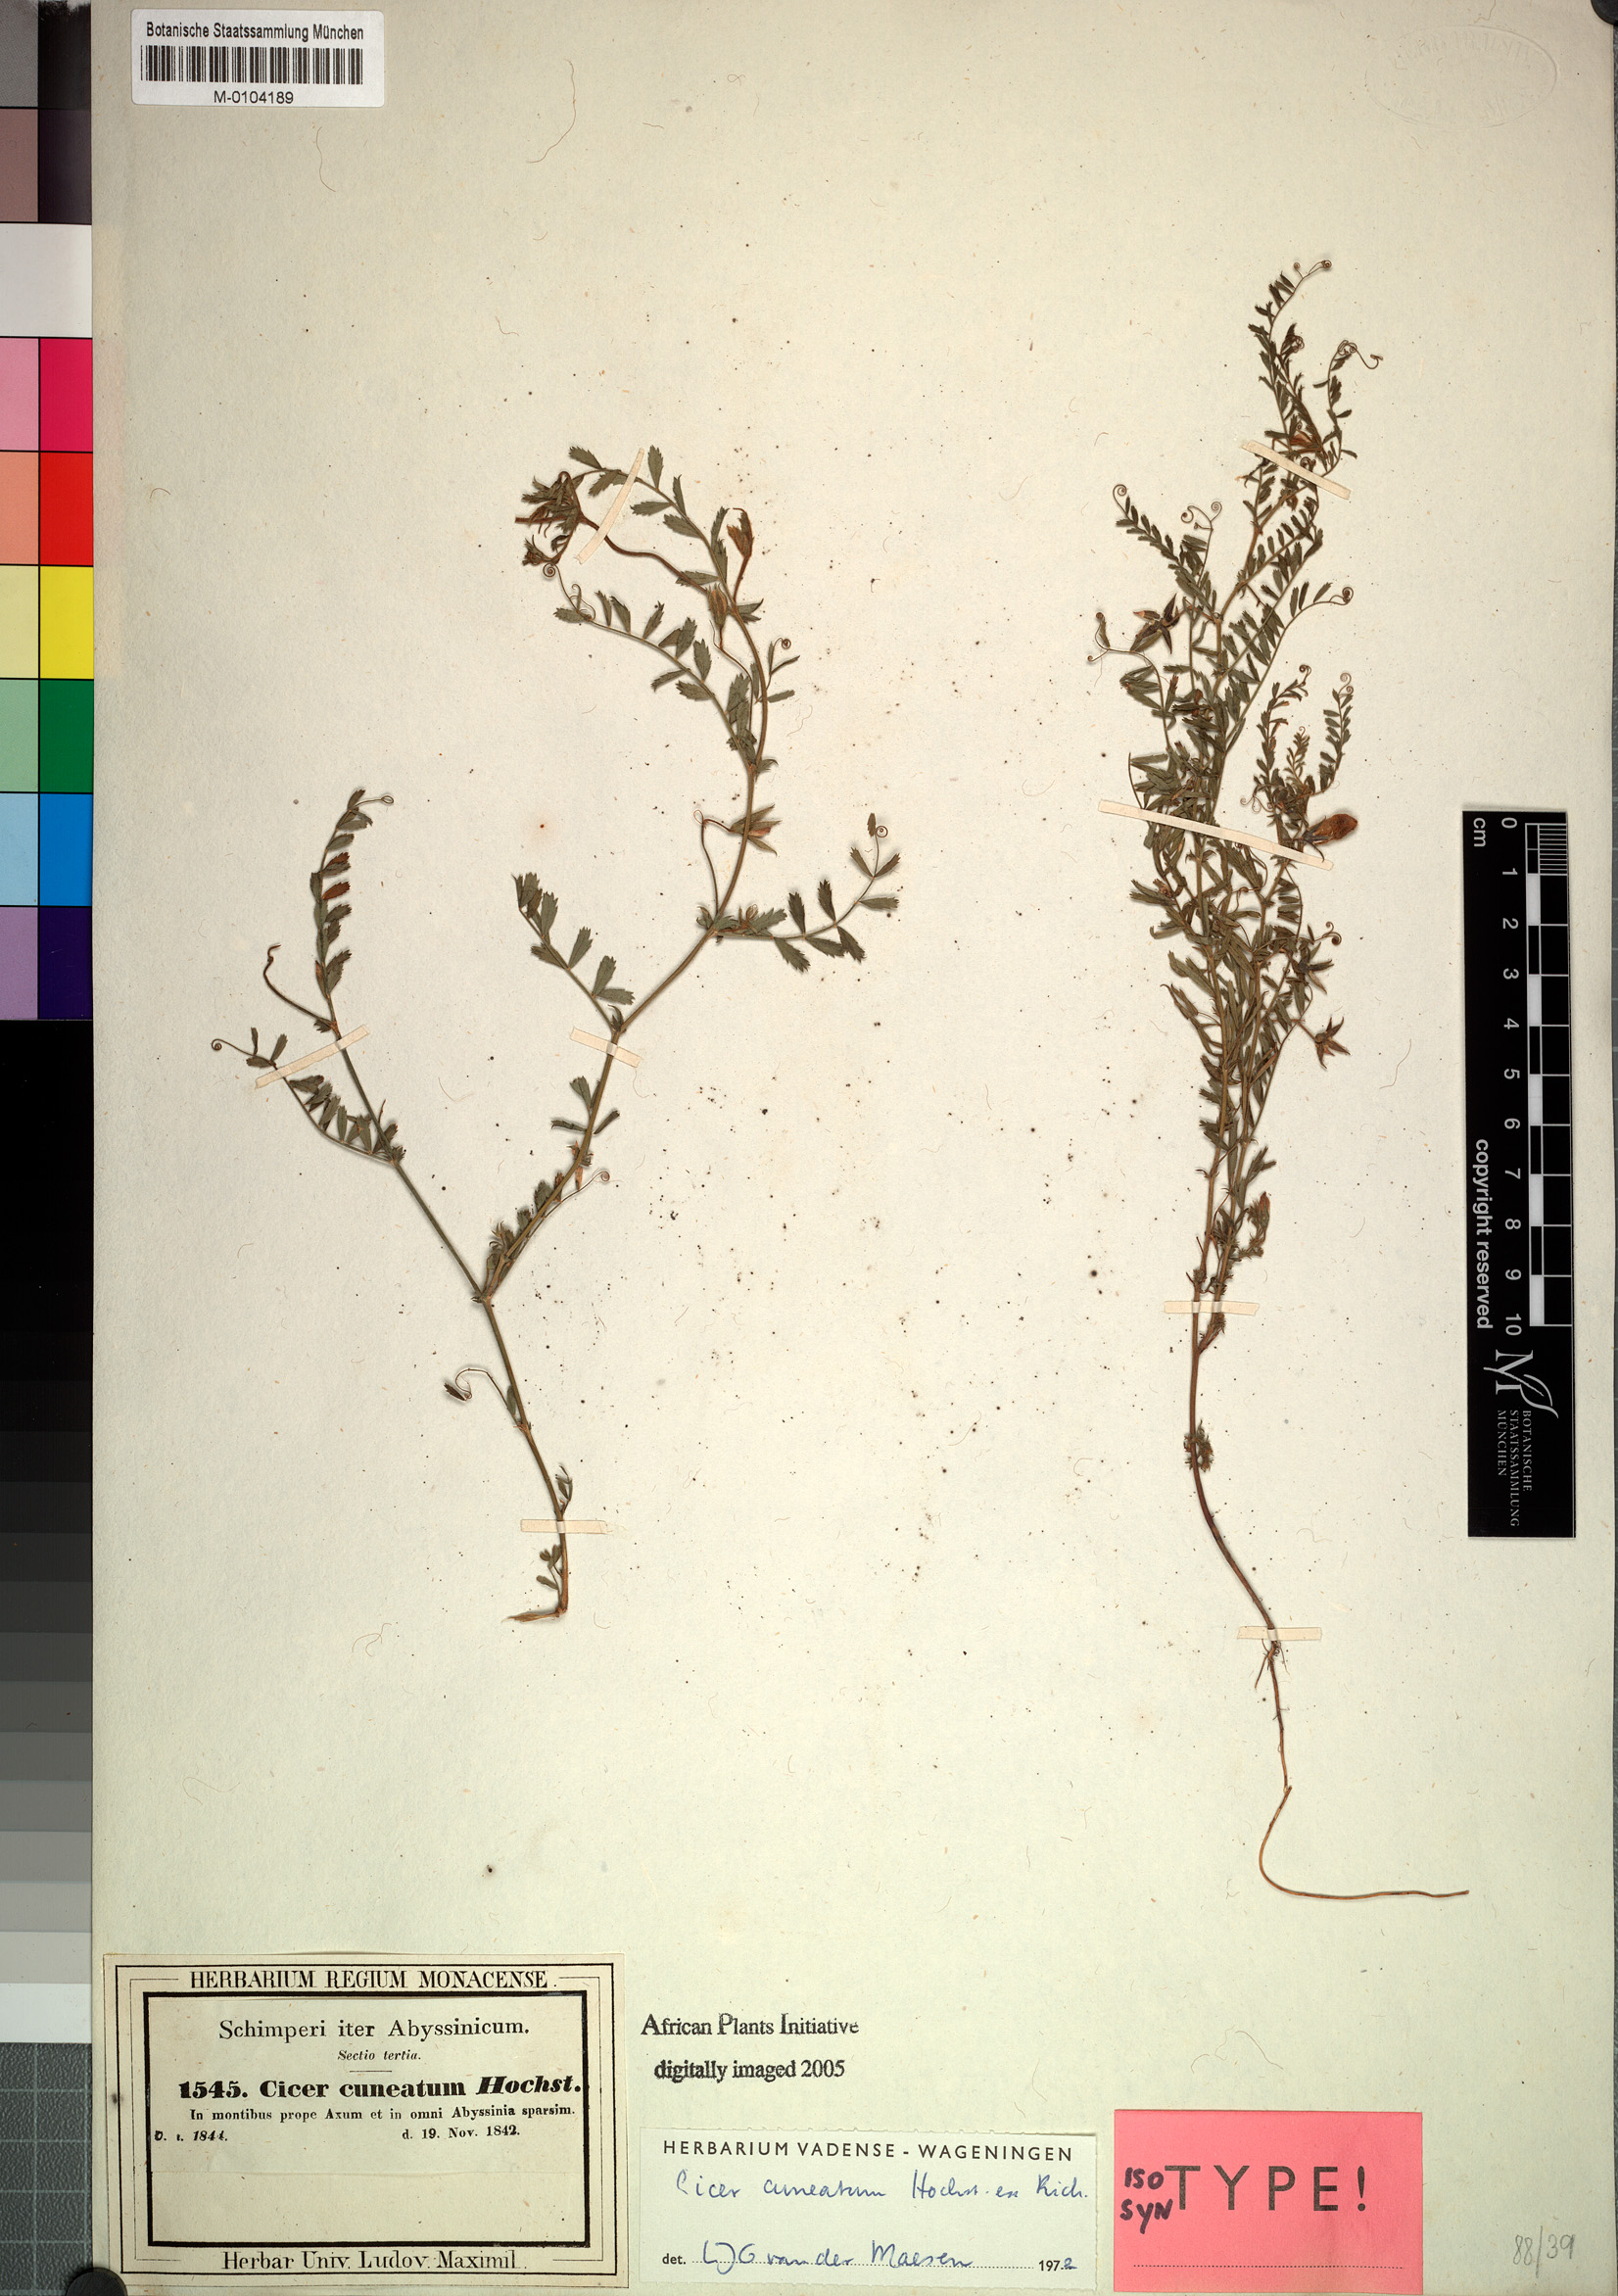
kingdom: Plantae
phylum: Tracheophyta
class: Magnoliopsida
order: Fabales
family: Fabaceae
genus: Cicer
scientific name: Cicer cuneatum
